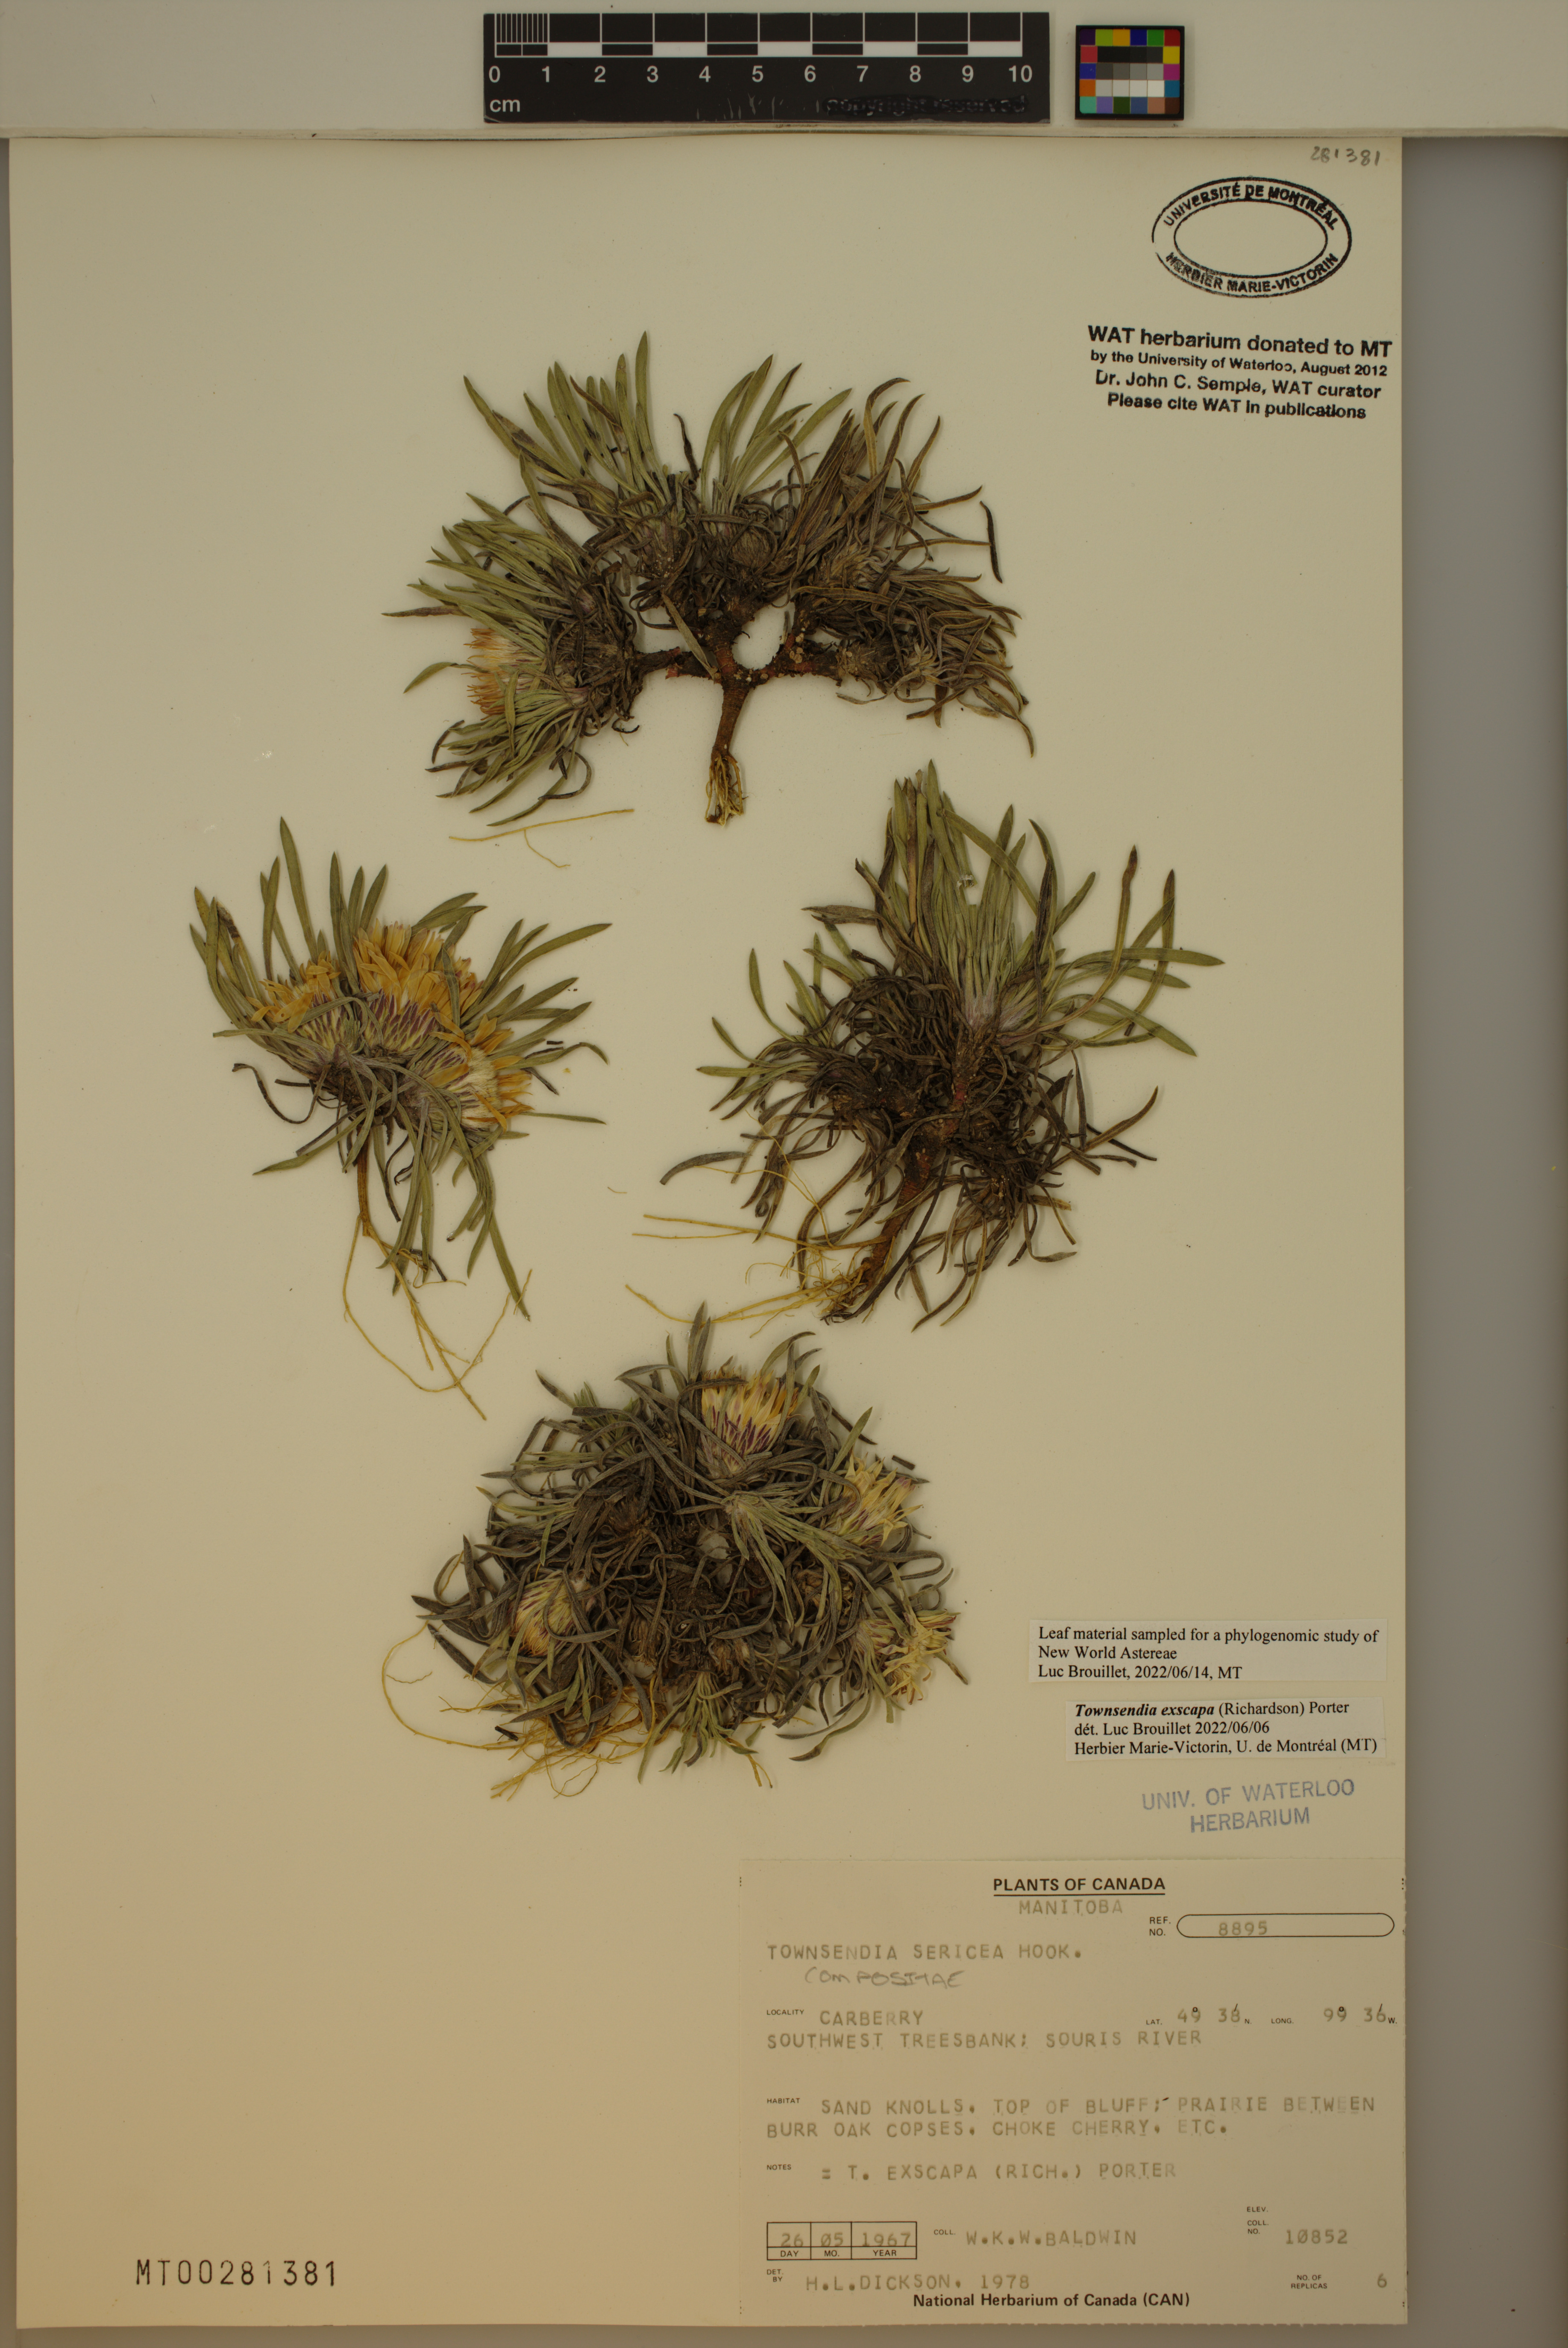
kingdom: Plantae
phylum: Tracheophyta
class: Magnoliopsida
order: Asterales
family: Asteraceae
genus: Townsendia
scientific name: Townsendia exscapa
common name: Dwarf townsendia
